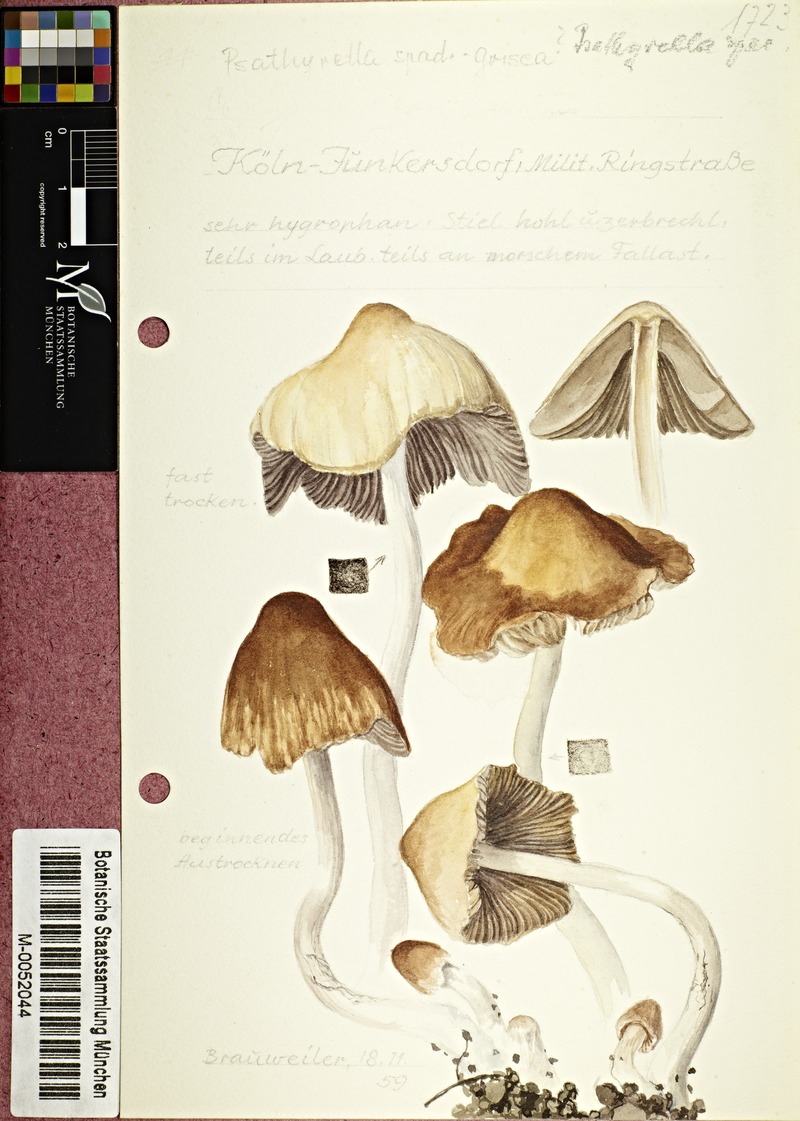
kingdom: Fungi
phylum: Basidiomycota
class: Agaricomycetes
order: Agaricales
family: Psathyrellaceae
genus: Psathyrella
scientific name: Psathyrella spadiceogrisea
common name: Spring brittlestem
